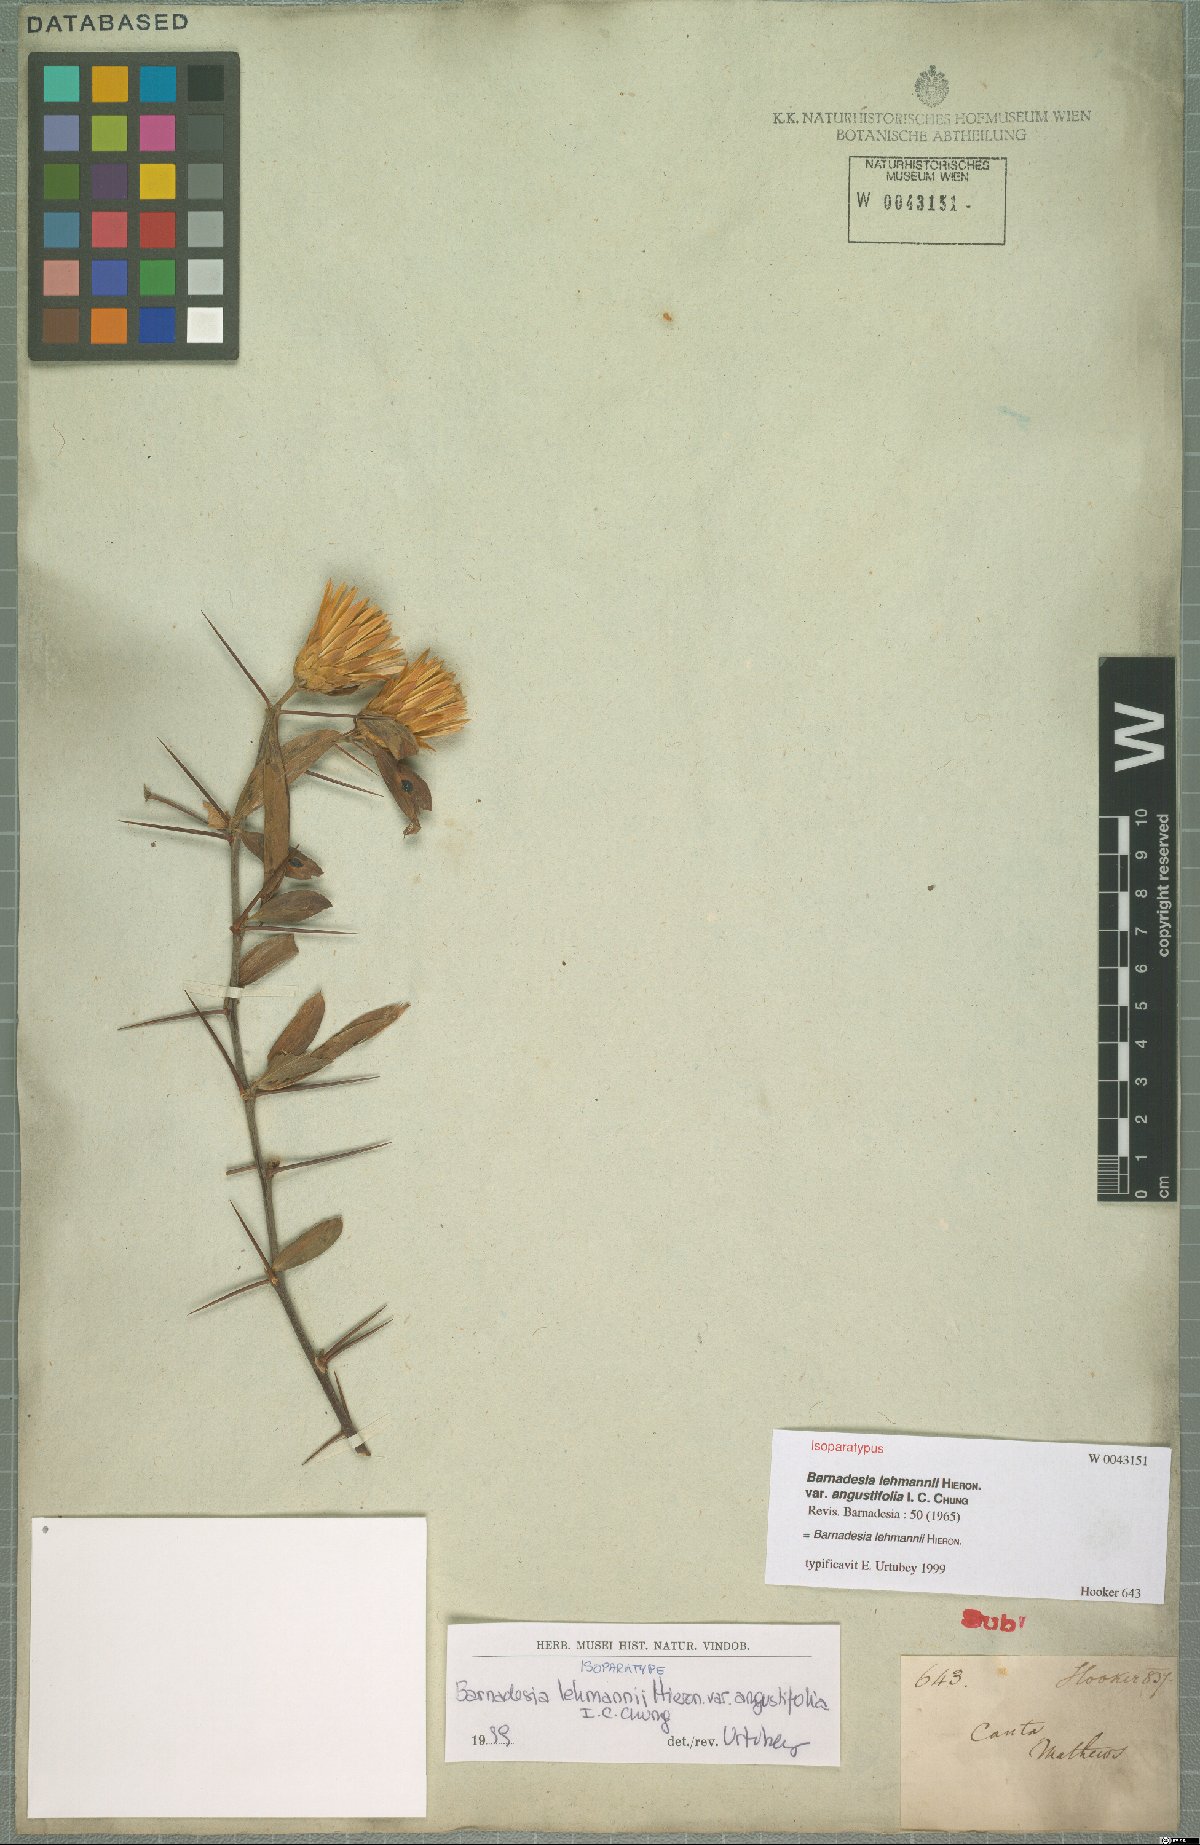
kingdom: Plantae
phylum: Tracheophyta
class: Magnoliopsida
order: Asterales
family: Asteraceae
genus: Barnadesia
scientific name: Barnadesia lehmannii
